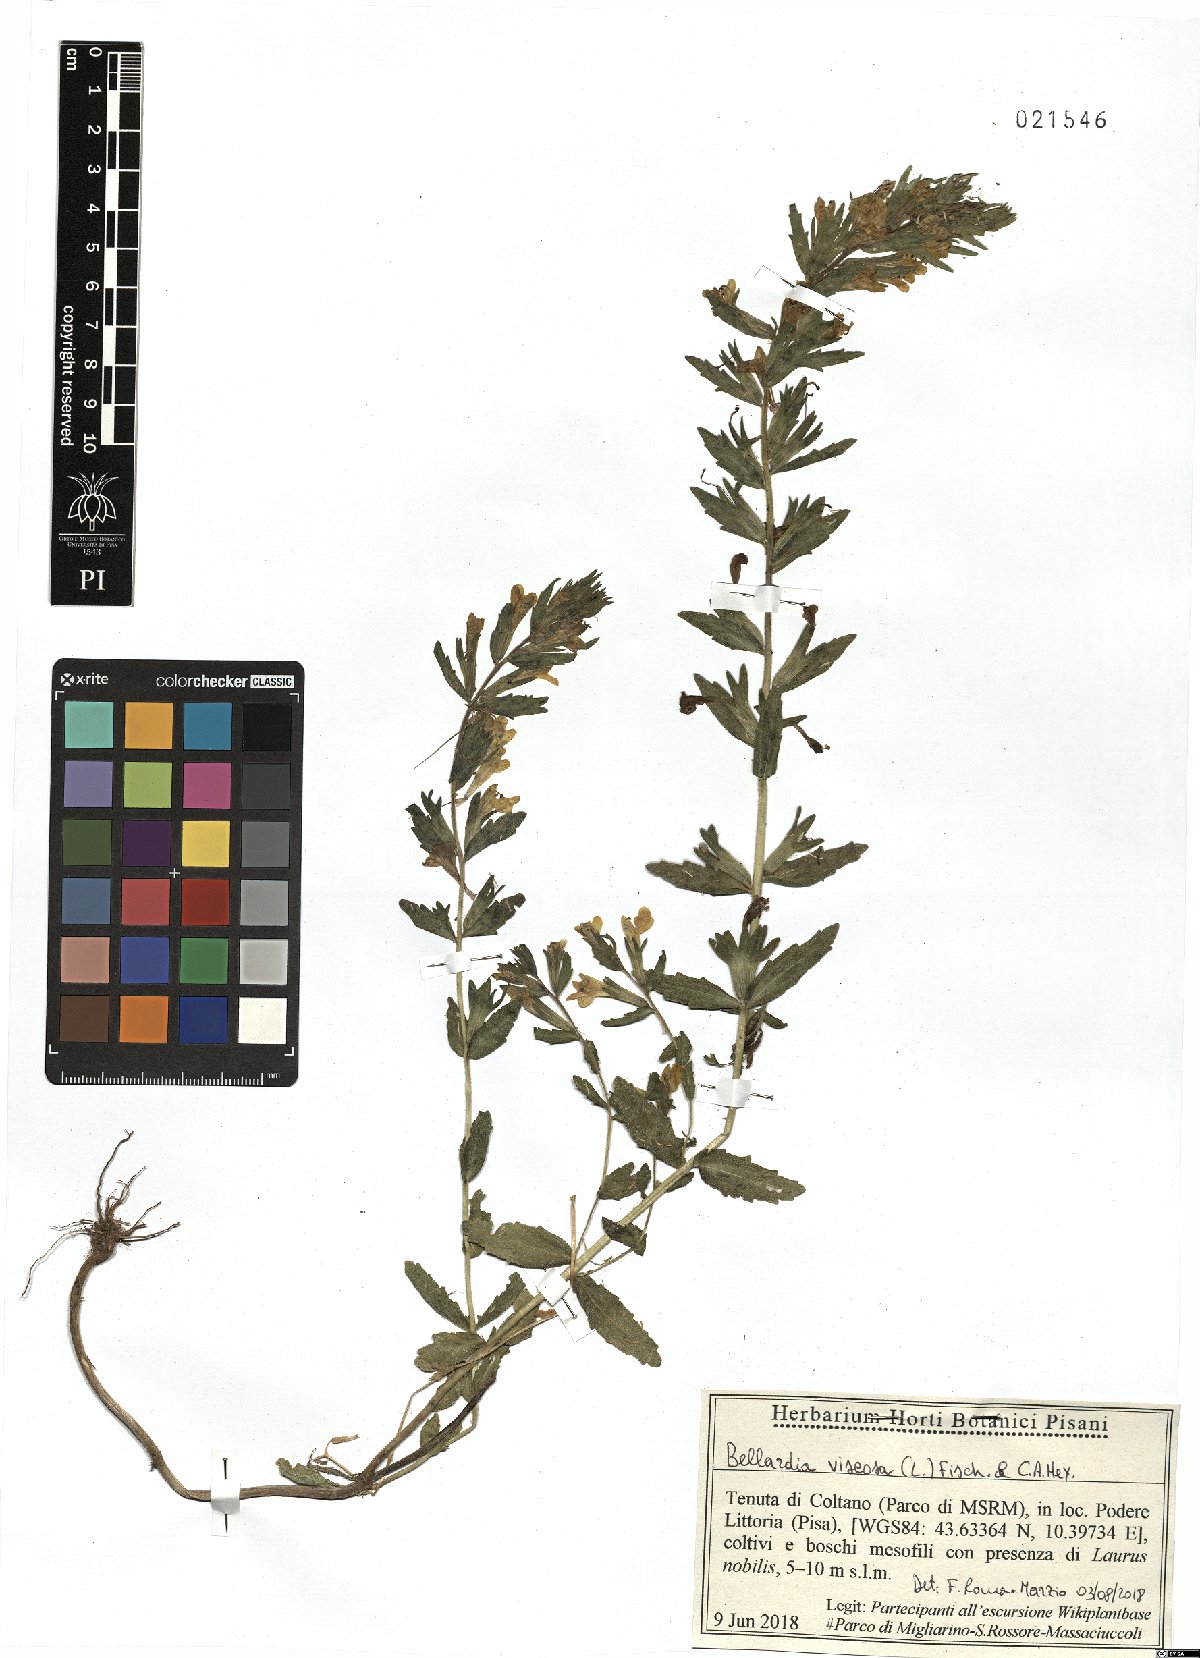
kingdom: Plantae
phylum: Tracheophyta
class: Magnoliopsida
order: Lamiales
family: Orobanchaceae
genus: Bellardia
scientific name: Bellardia viscosa
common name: Sticky parentucellia
